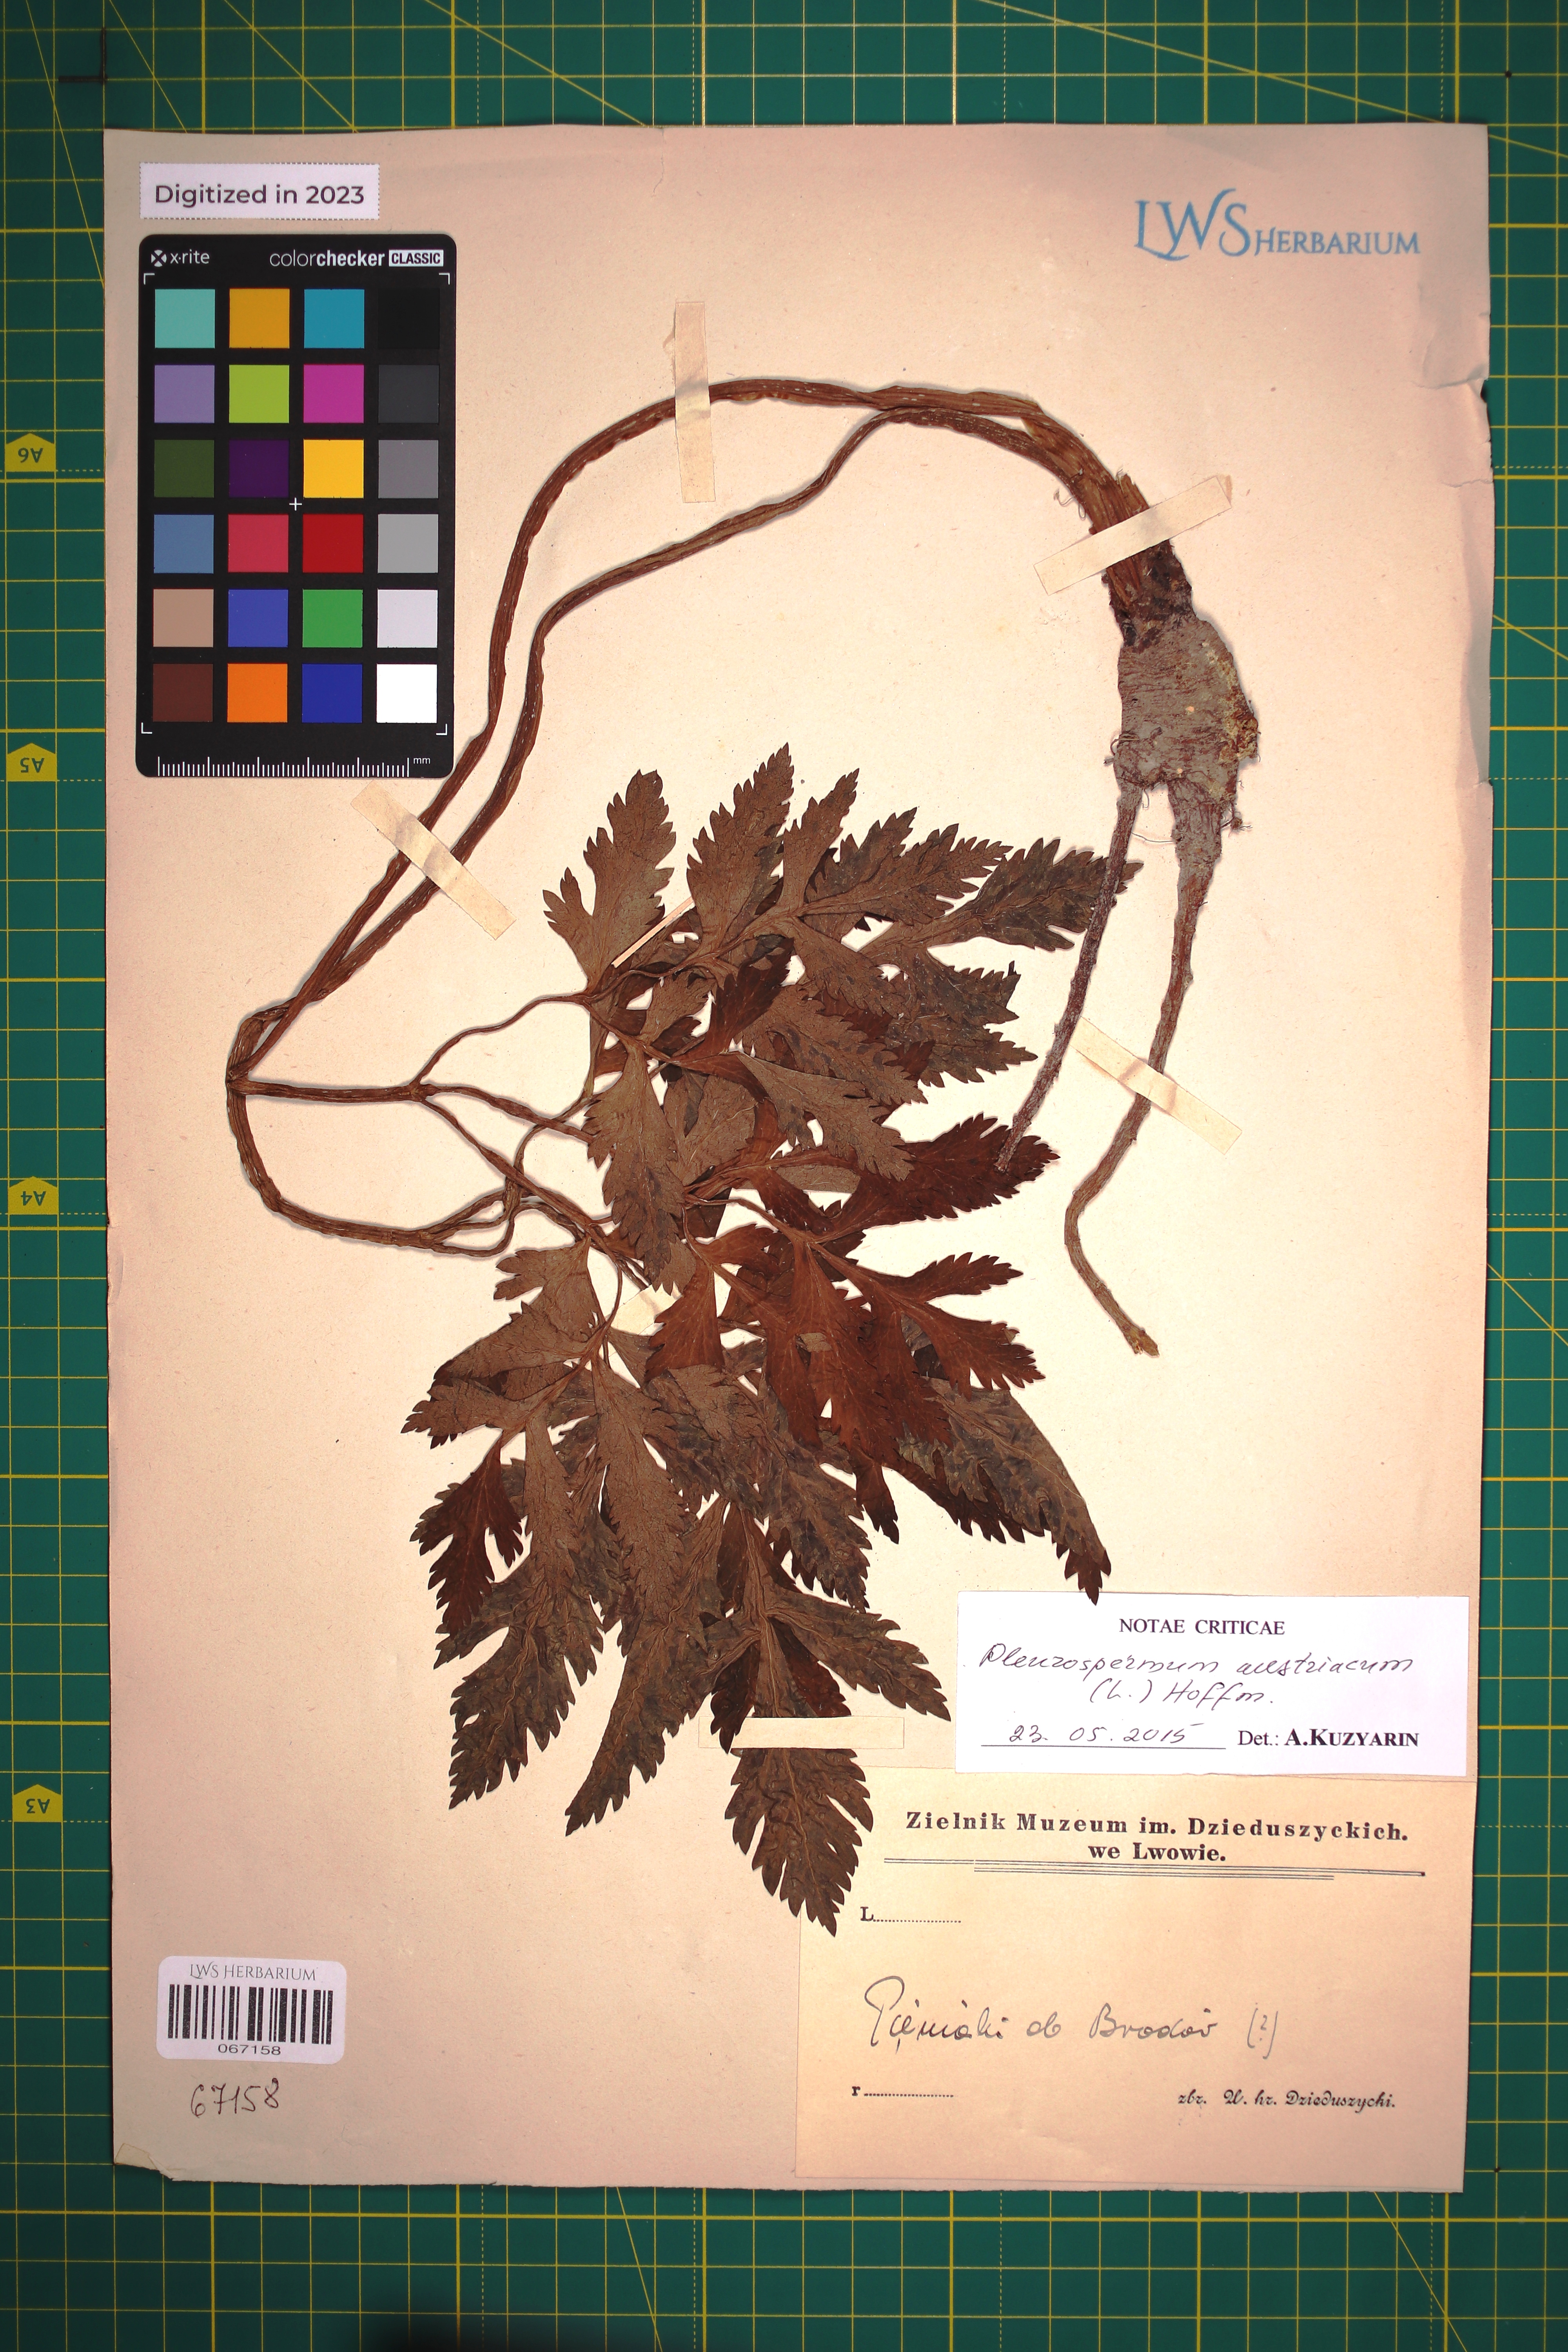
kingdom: Plantae
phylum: Tracheophyta
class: Magnoliopsida
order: Apiales
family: Apiaceae
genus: Pleurospermum
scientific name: Pleurospermum austriacum
